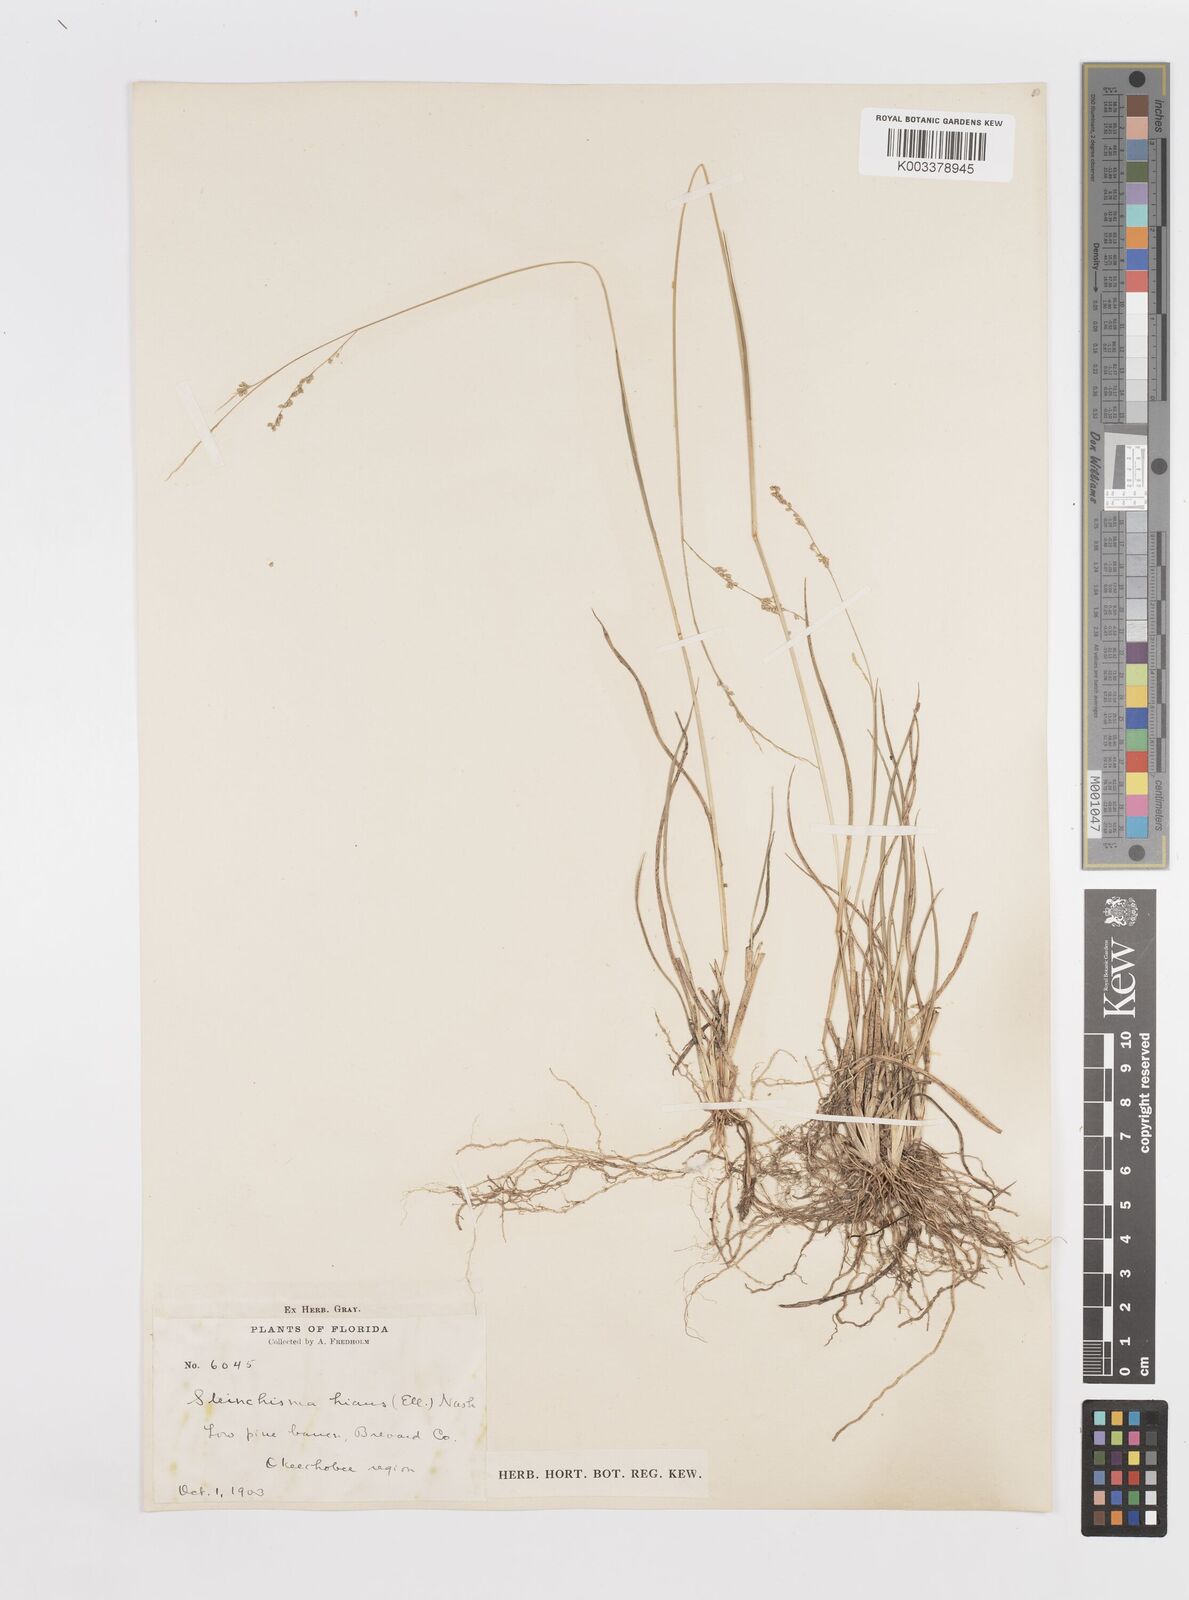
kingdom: Plantae
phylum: Tracheophyta
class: Liliopsida
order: Poales
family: Poaceae
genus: Steinchisma
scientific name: Steinchisma hians
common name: Gaping panic grass
